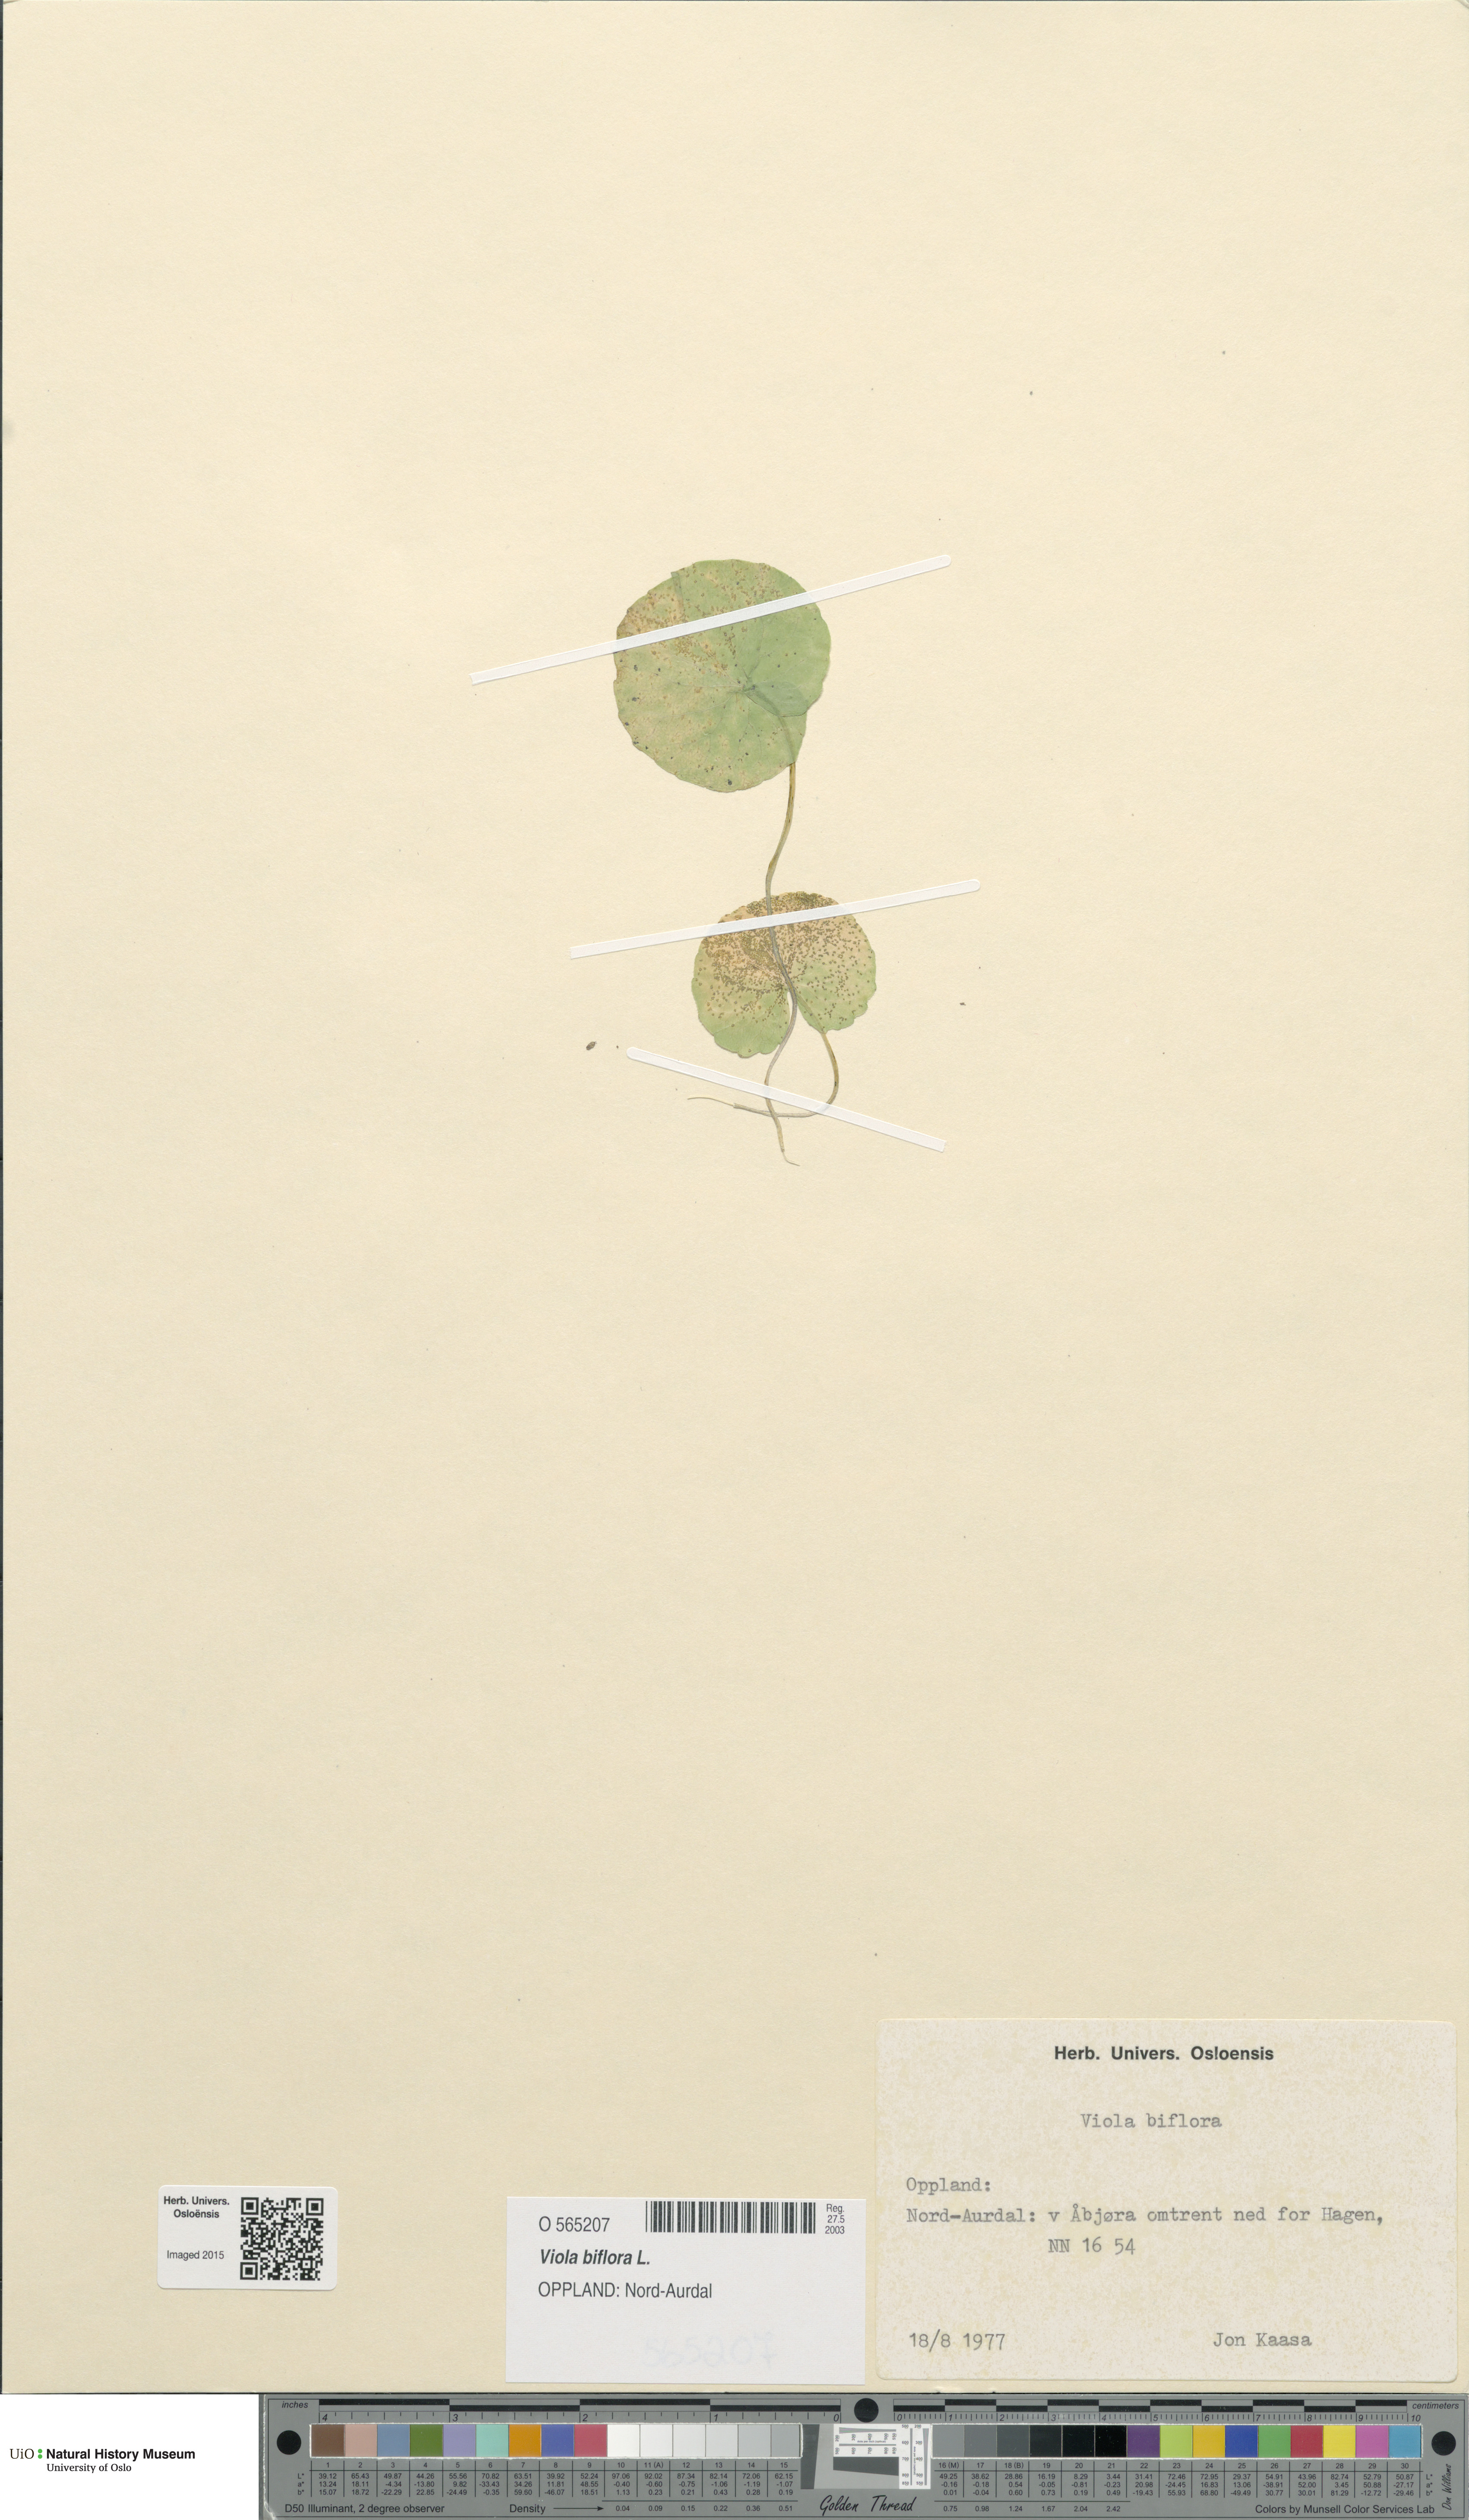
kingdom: Plantae
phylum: Tracheophyta
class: Magnoliopsida
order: Malpighiales
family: Violaceae
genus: Viola
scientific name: Viola biflora
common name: Alpine yellow violet
